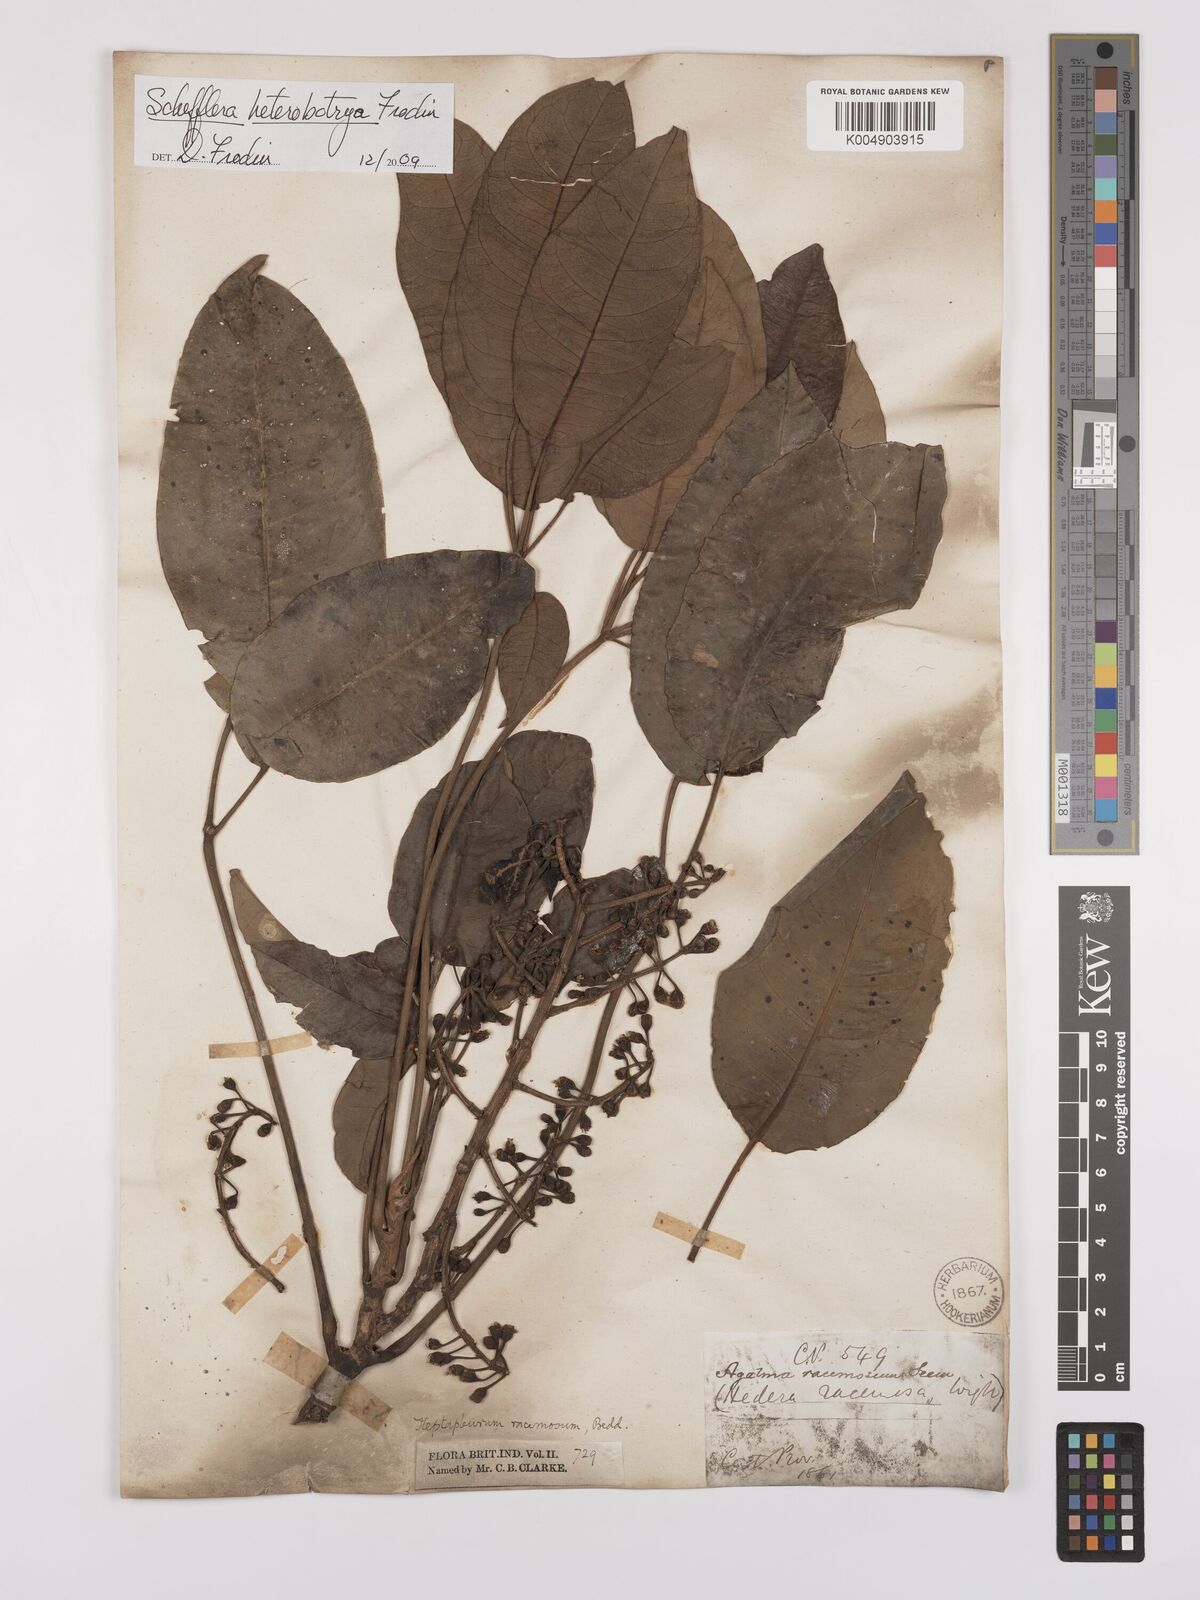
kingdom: Plantae
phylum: Tracheophyta
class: Magnoliopsida
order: Apiales
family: Araliaceae
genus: Heptapleurum
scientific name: Heptapleurum
